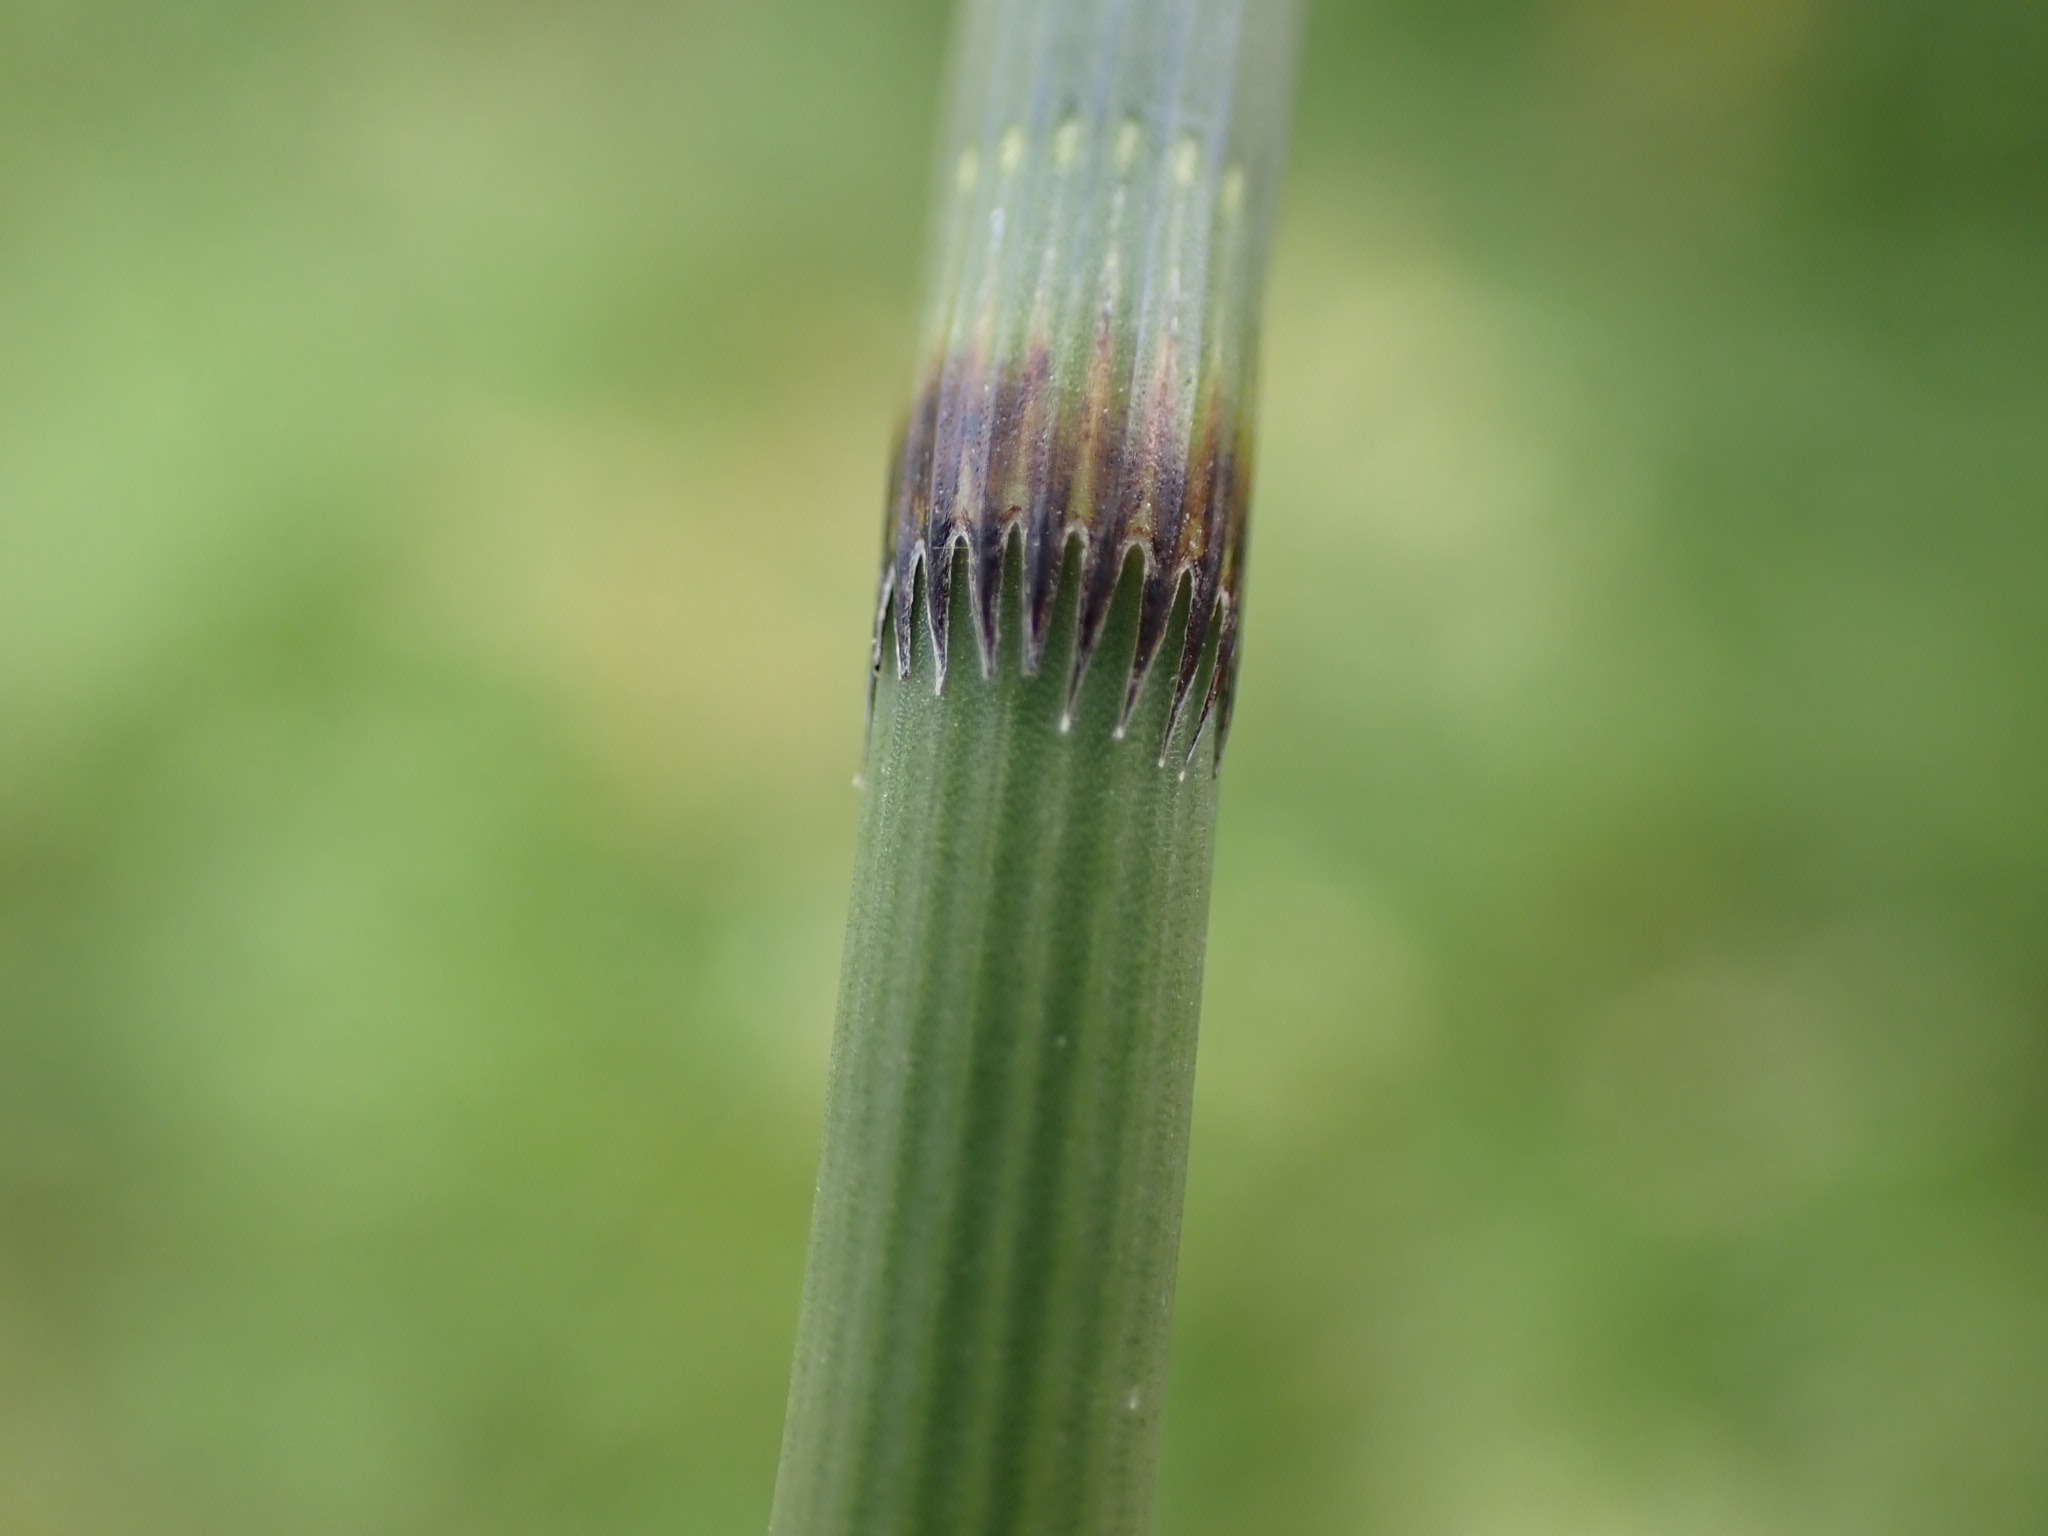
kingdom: Plantae
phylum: Tracheophyta
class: Polypodiopsida
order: Equisetales
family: Equisetaceae
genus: Equisetum
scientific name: Equisetum fluviatile
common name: Dynd-padderok
